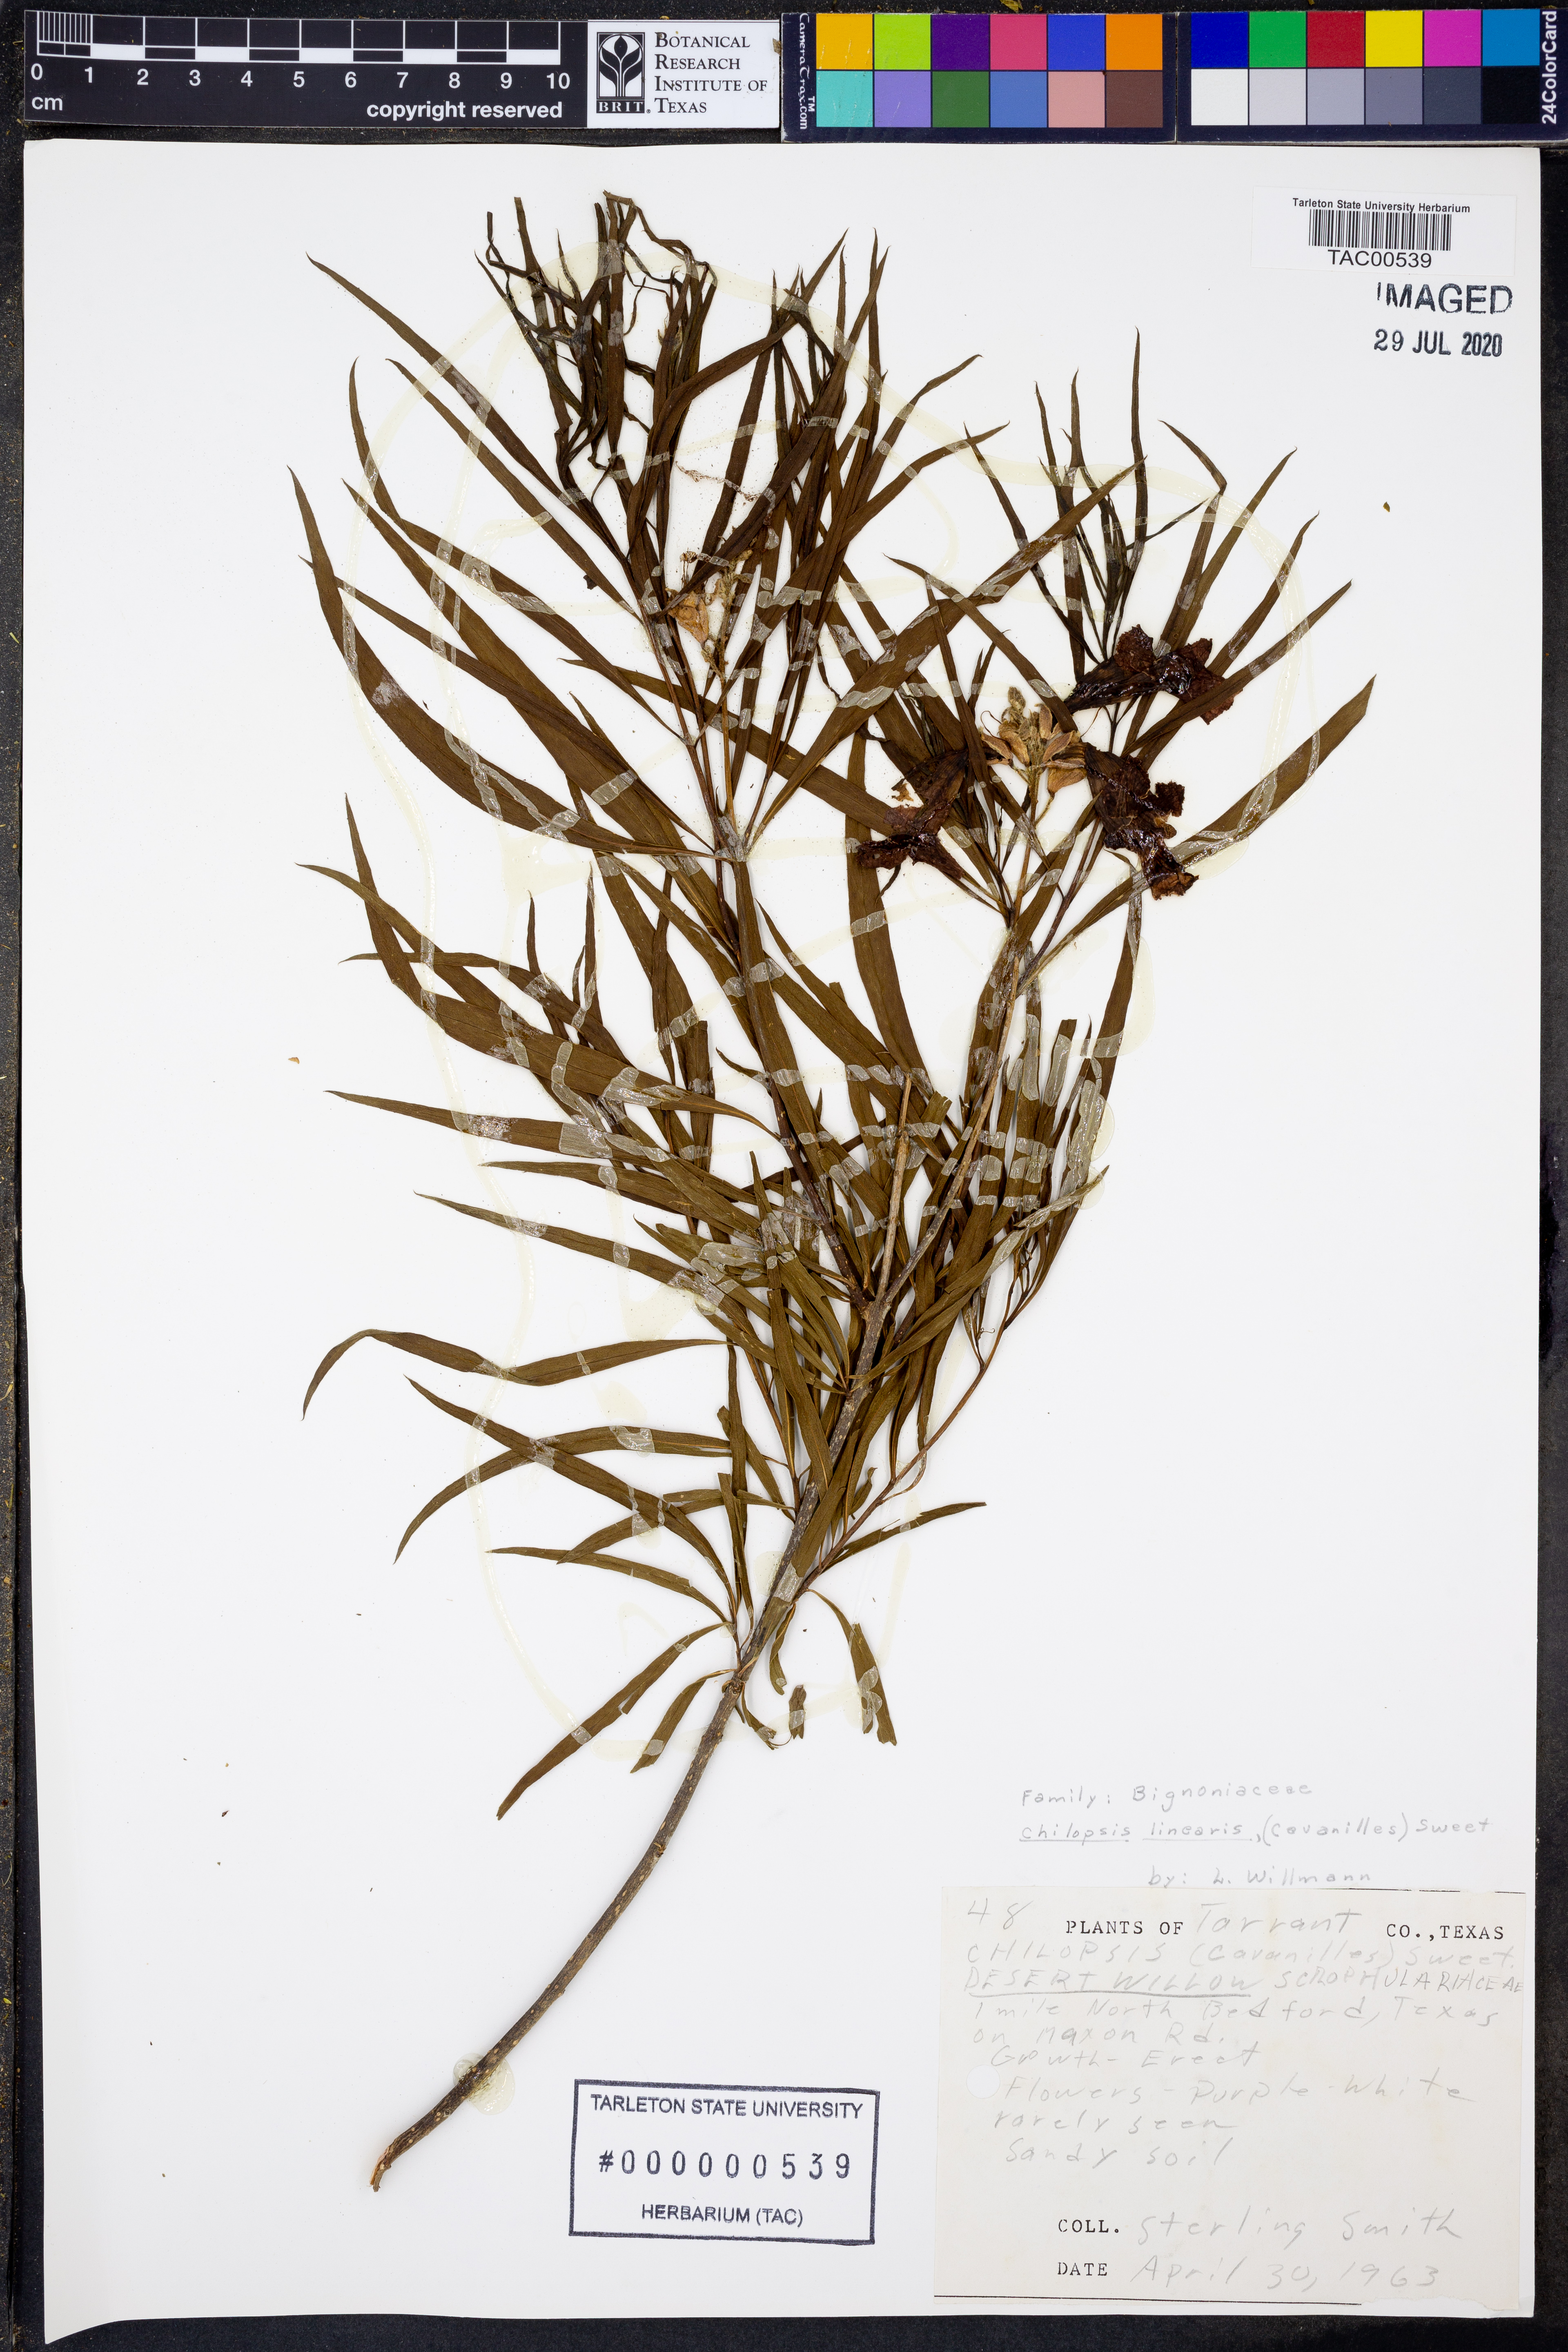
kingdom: Plantae
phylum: Tracheophyta
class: Magnoliopsida
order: Lamiales
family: Bignoniaceae
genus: Chilopsis
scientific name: Chilopsis linearis
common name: Desert-willow
